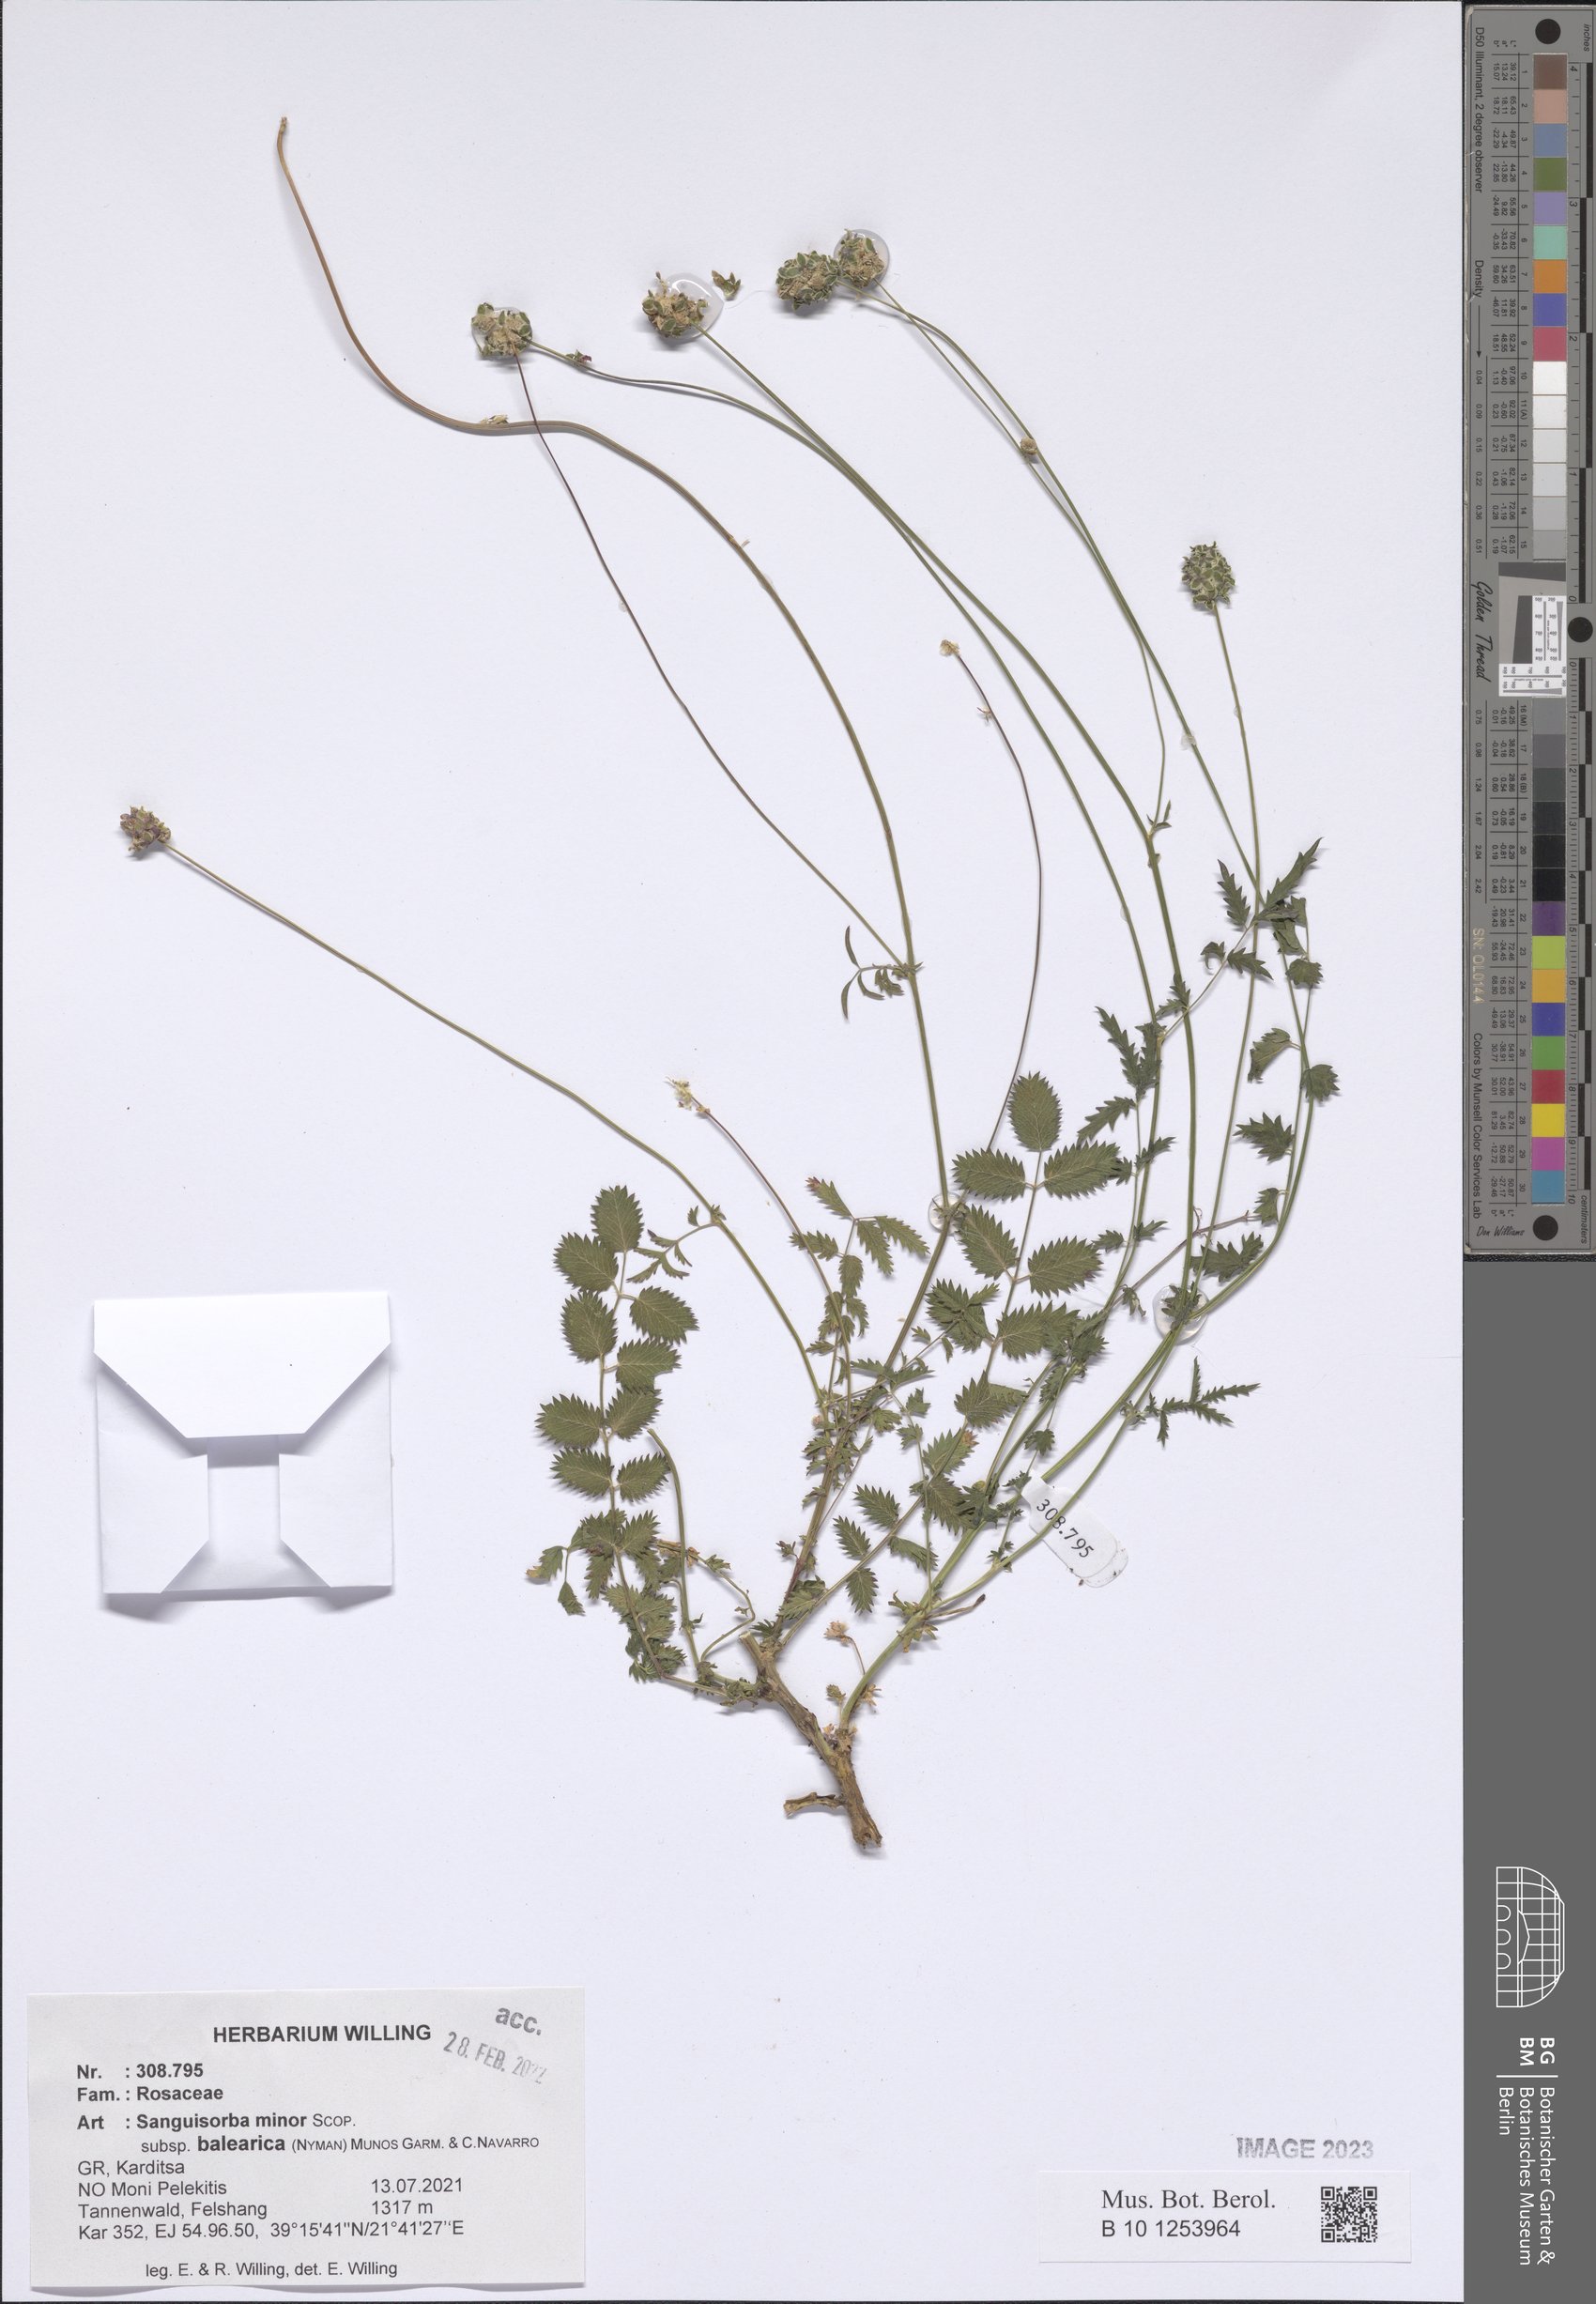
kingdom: Plantae
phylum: Tracheophyta
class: Magnoliopsida
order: Rosales
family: Rosaceae
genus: Poterium
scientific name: Poterium sanguisorba
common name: Salad burnet
